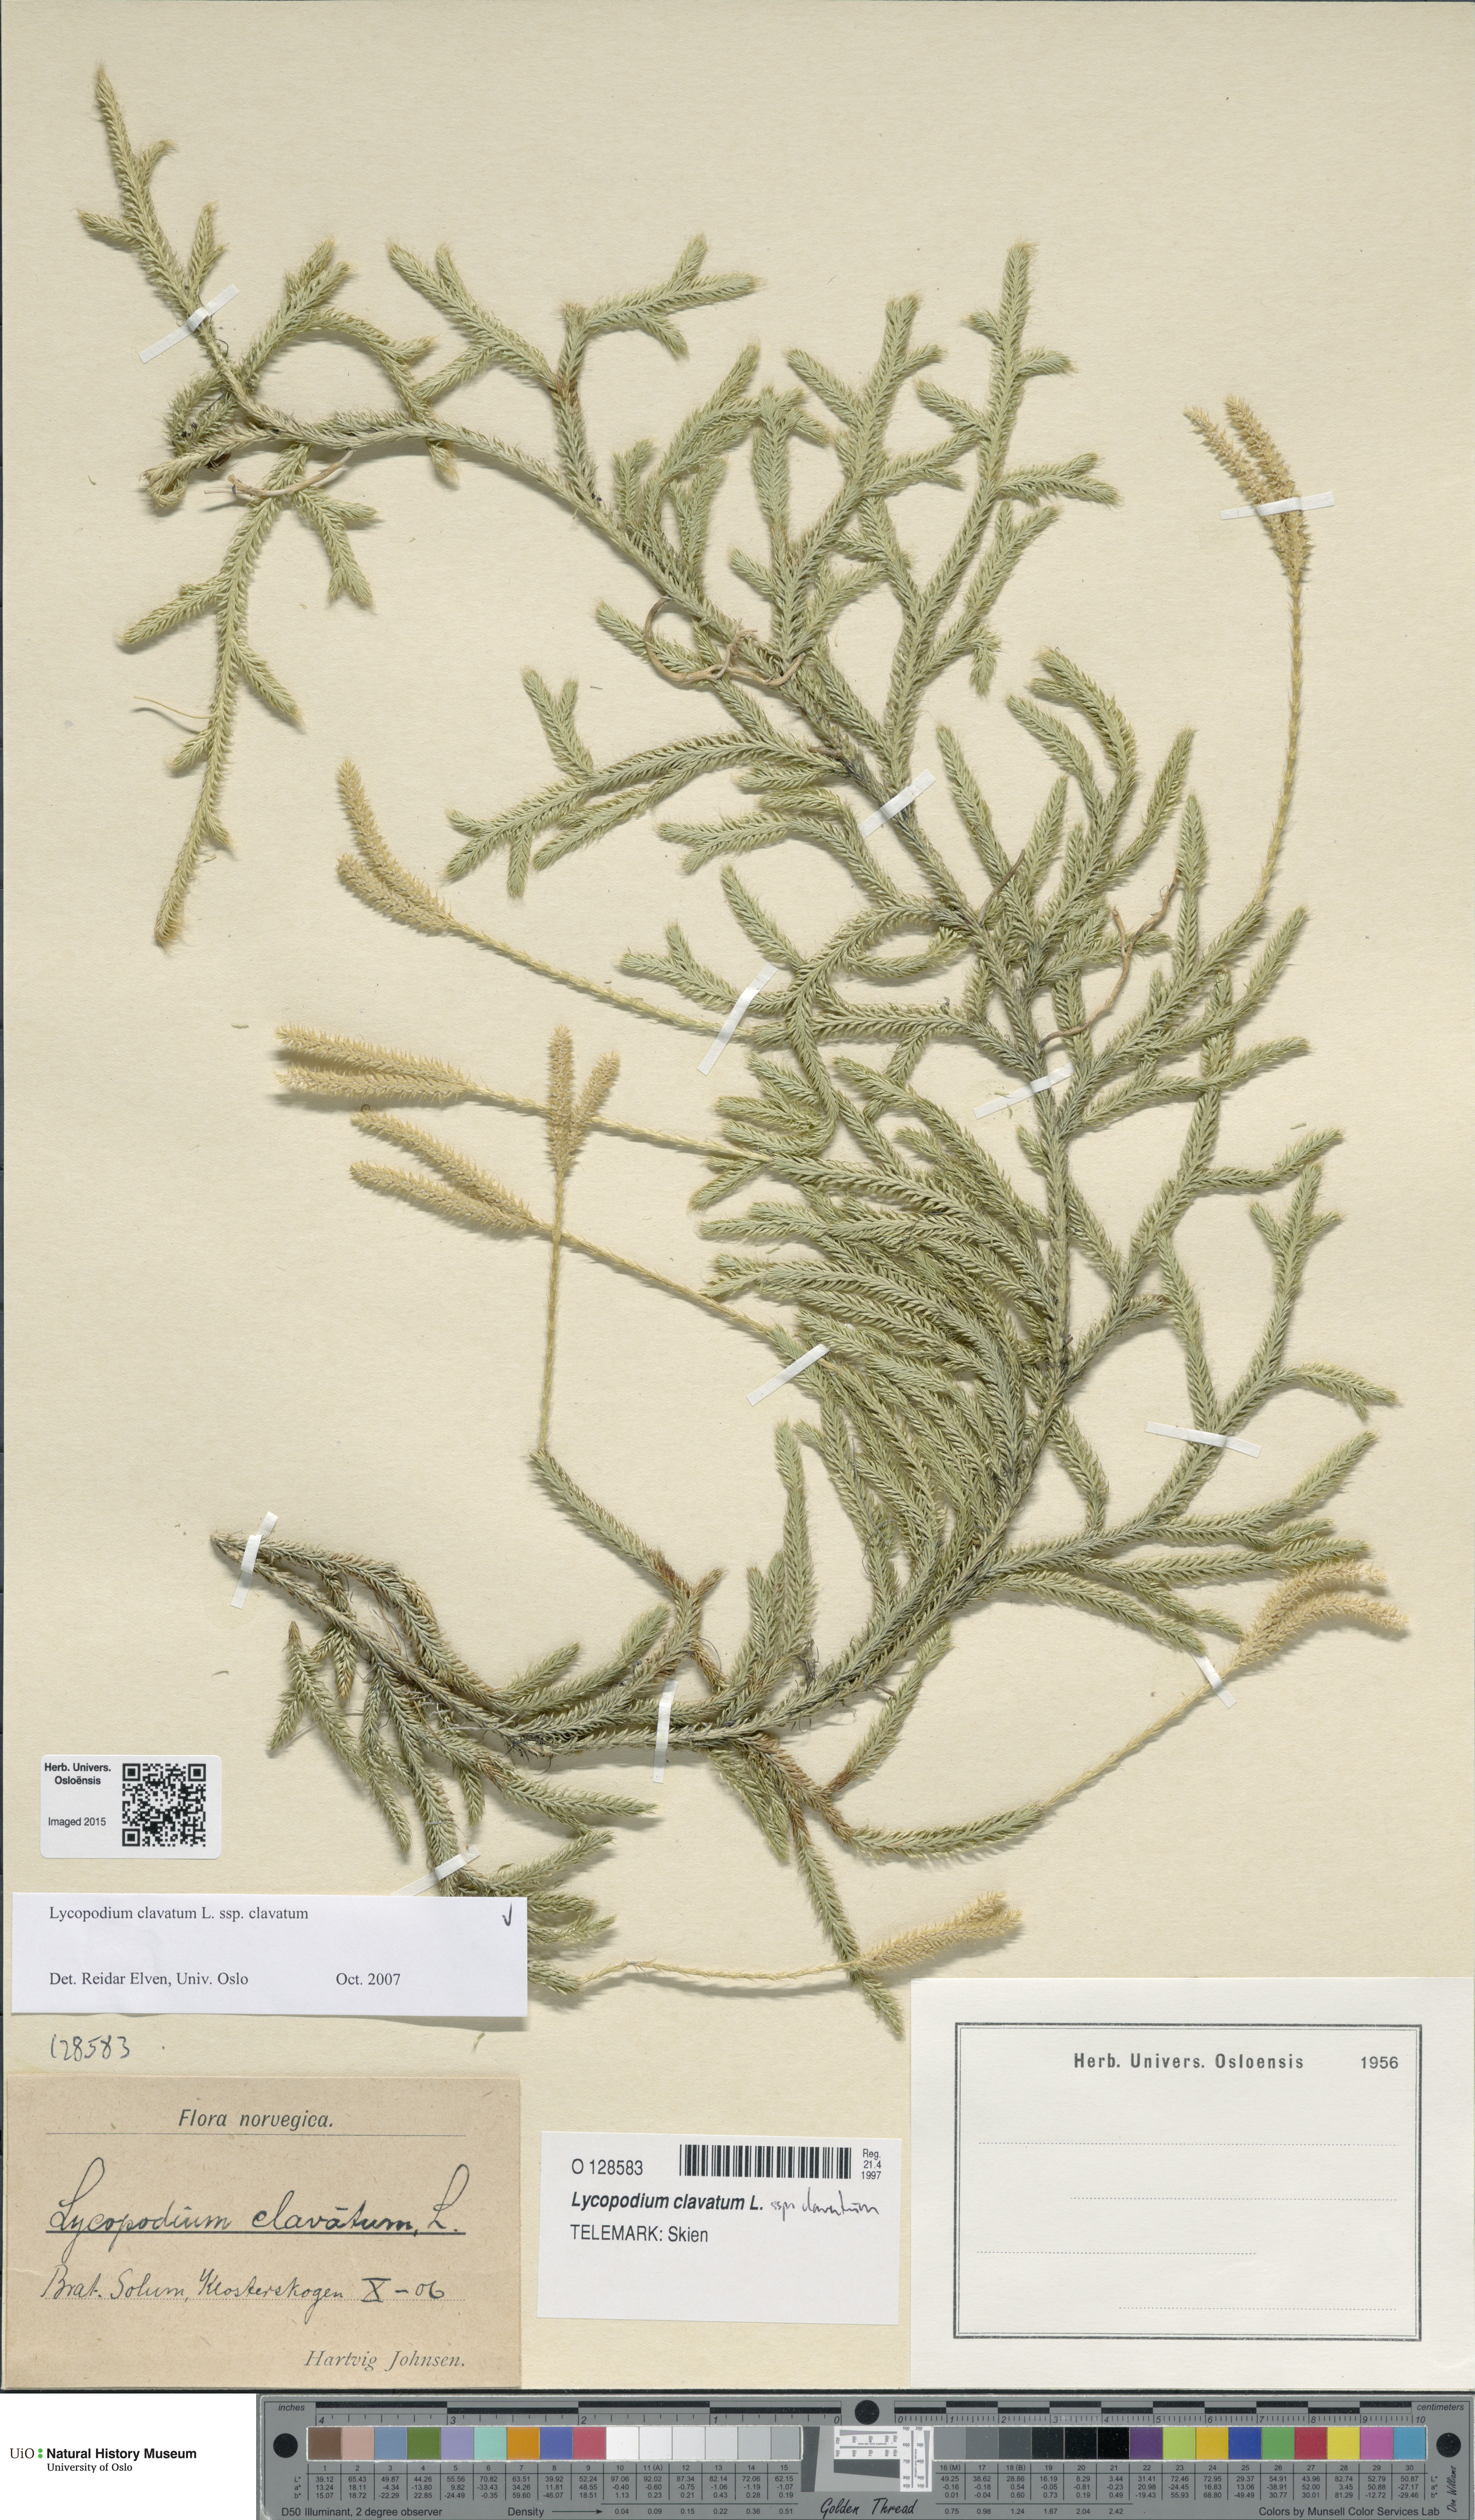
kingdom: Plantae
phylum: Tracheophyta
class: Lycopodiopsida
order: Lycopodiales
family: Lycopodiaceae
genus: Lycopodium
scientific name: Lycopodium clavatum
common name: Stag's-horn clubmoss
